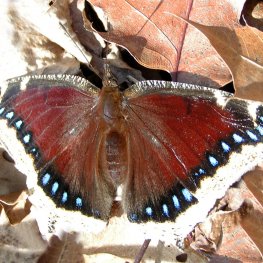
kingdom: Animalia
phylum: Arthropoda
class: Insecta
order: Lepidoptera
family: Nymphalidae
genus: Nymphalis
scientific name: Nymphalis antiopa
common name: Mourning Cloak
